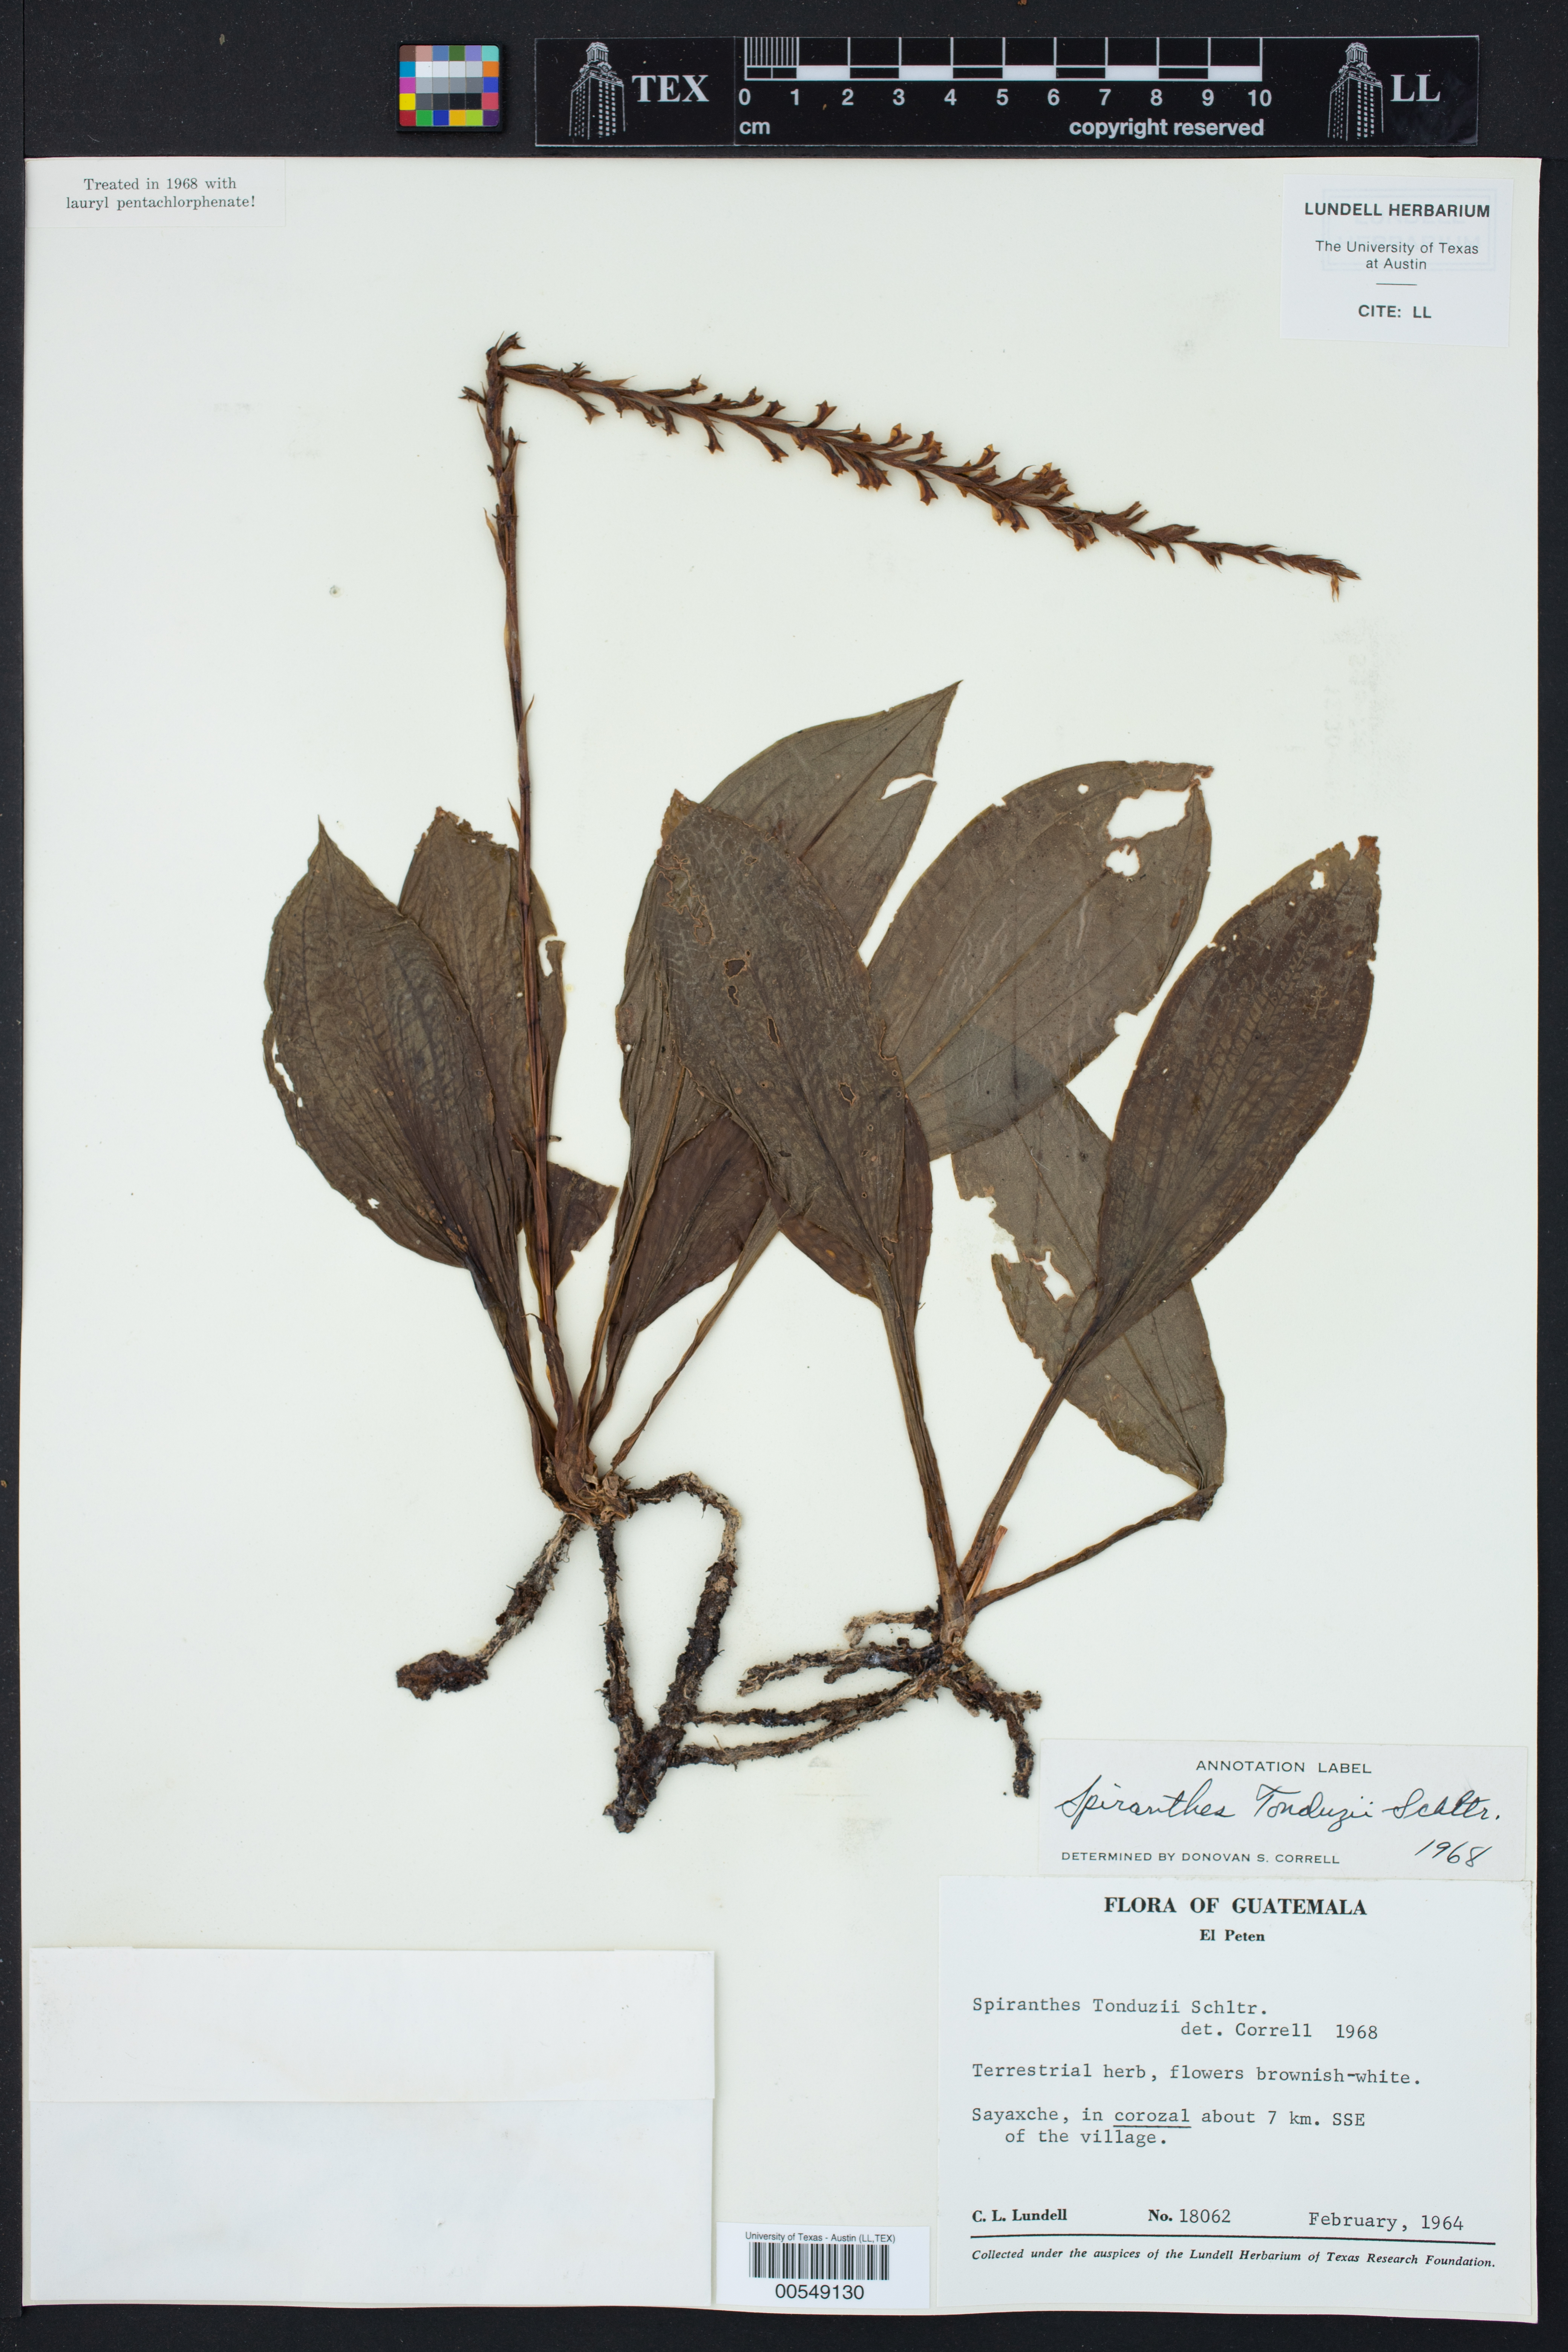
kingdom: Plantae
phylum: Tracheophyta
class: Liliopsida
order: Asparagales
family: Orchidaceae
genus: Mesadenella
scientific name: Mesadenella tonduzii
